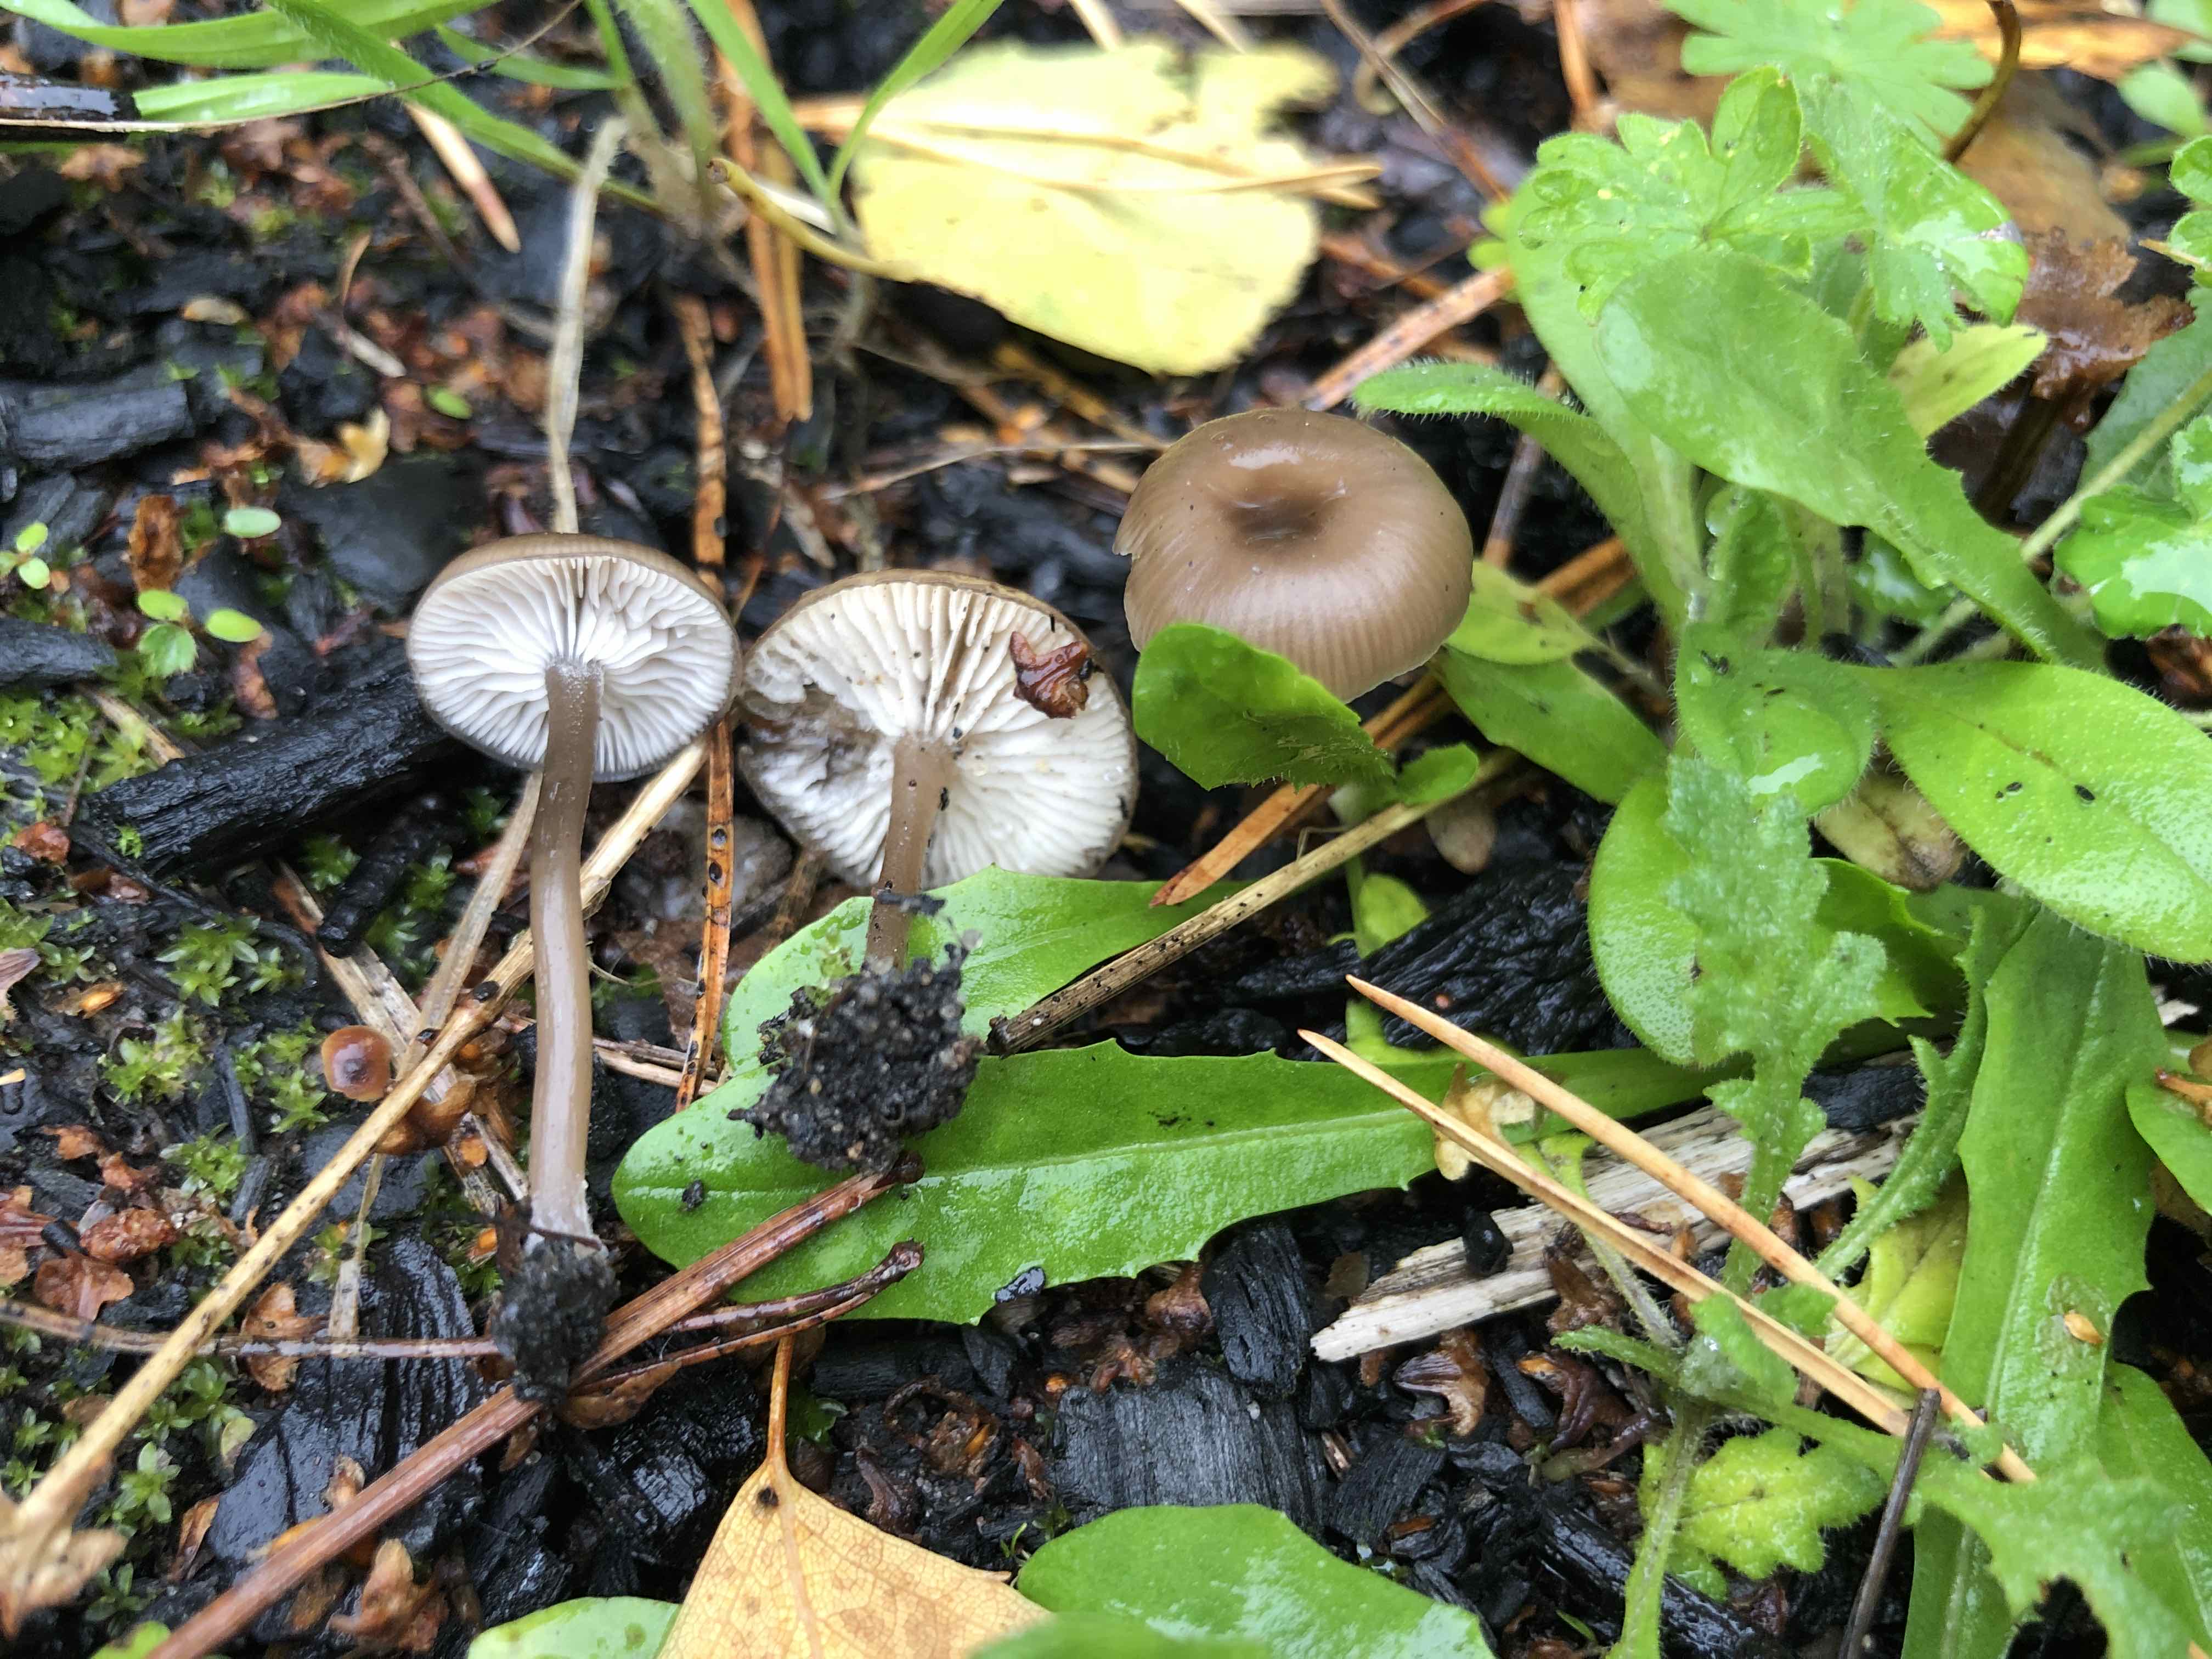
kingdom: Fungi
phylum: Basidiomycota
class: Agaricomycetes
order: Agaricales
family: Tricholomataceae
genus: Myxomphalia
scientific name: Myxomphalia maura
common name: kulhat
